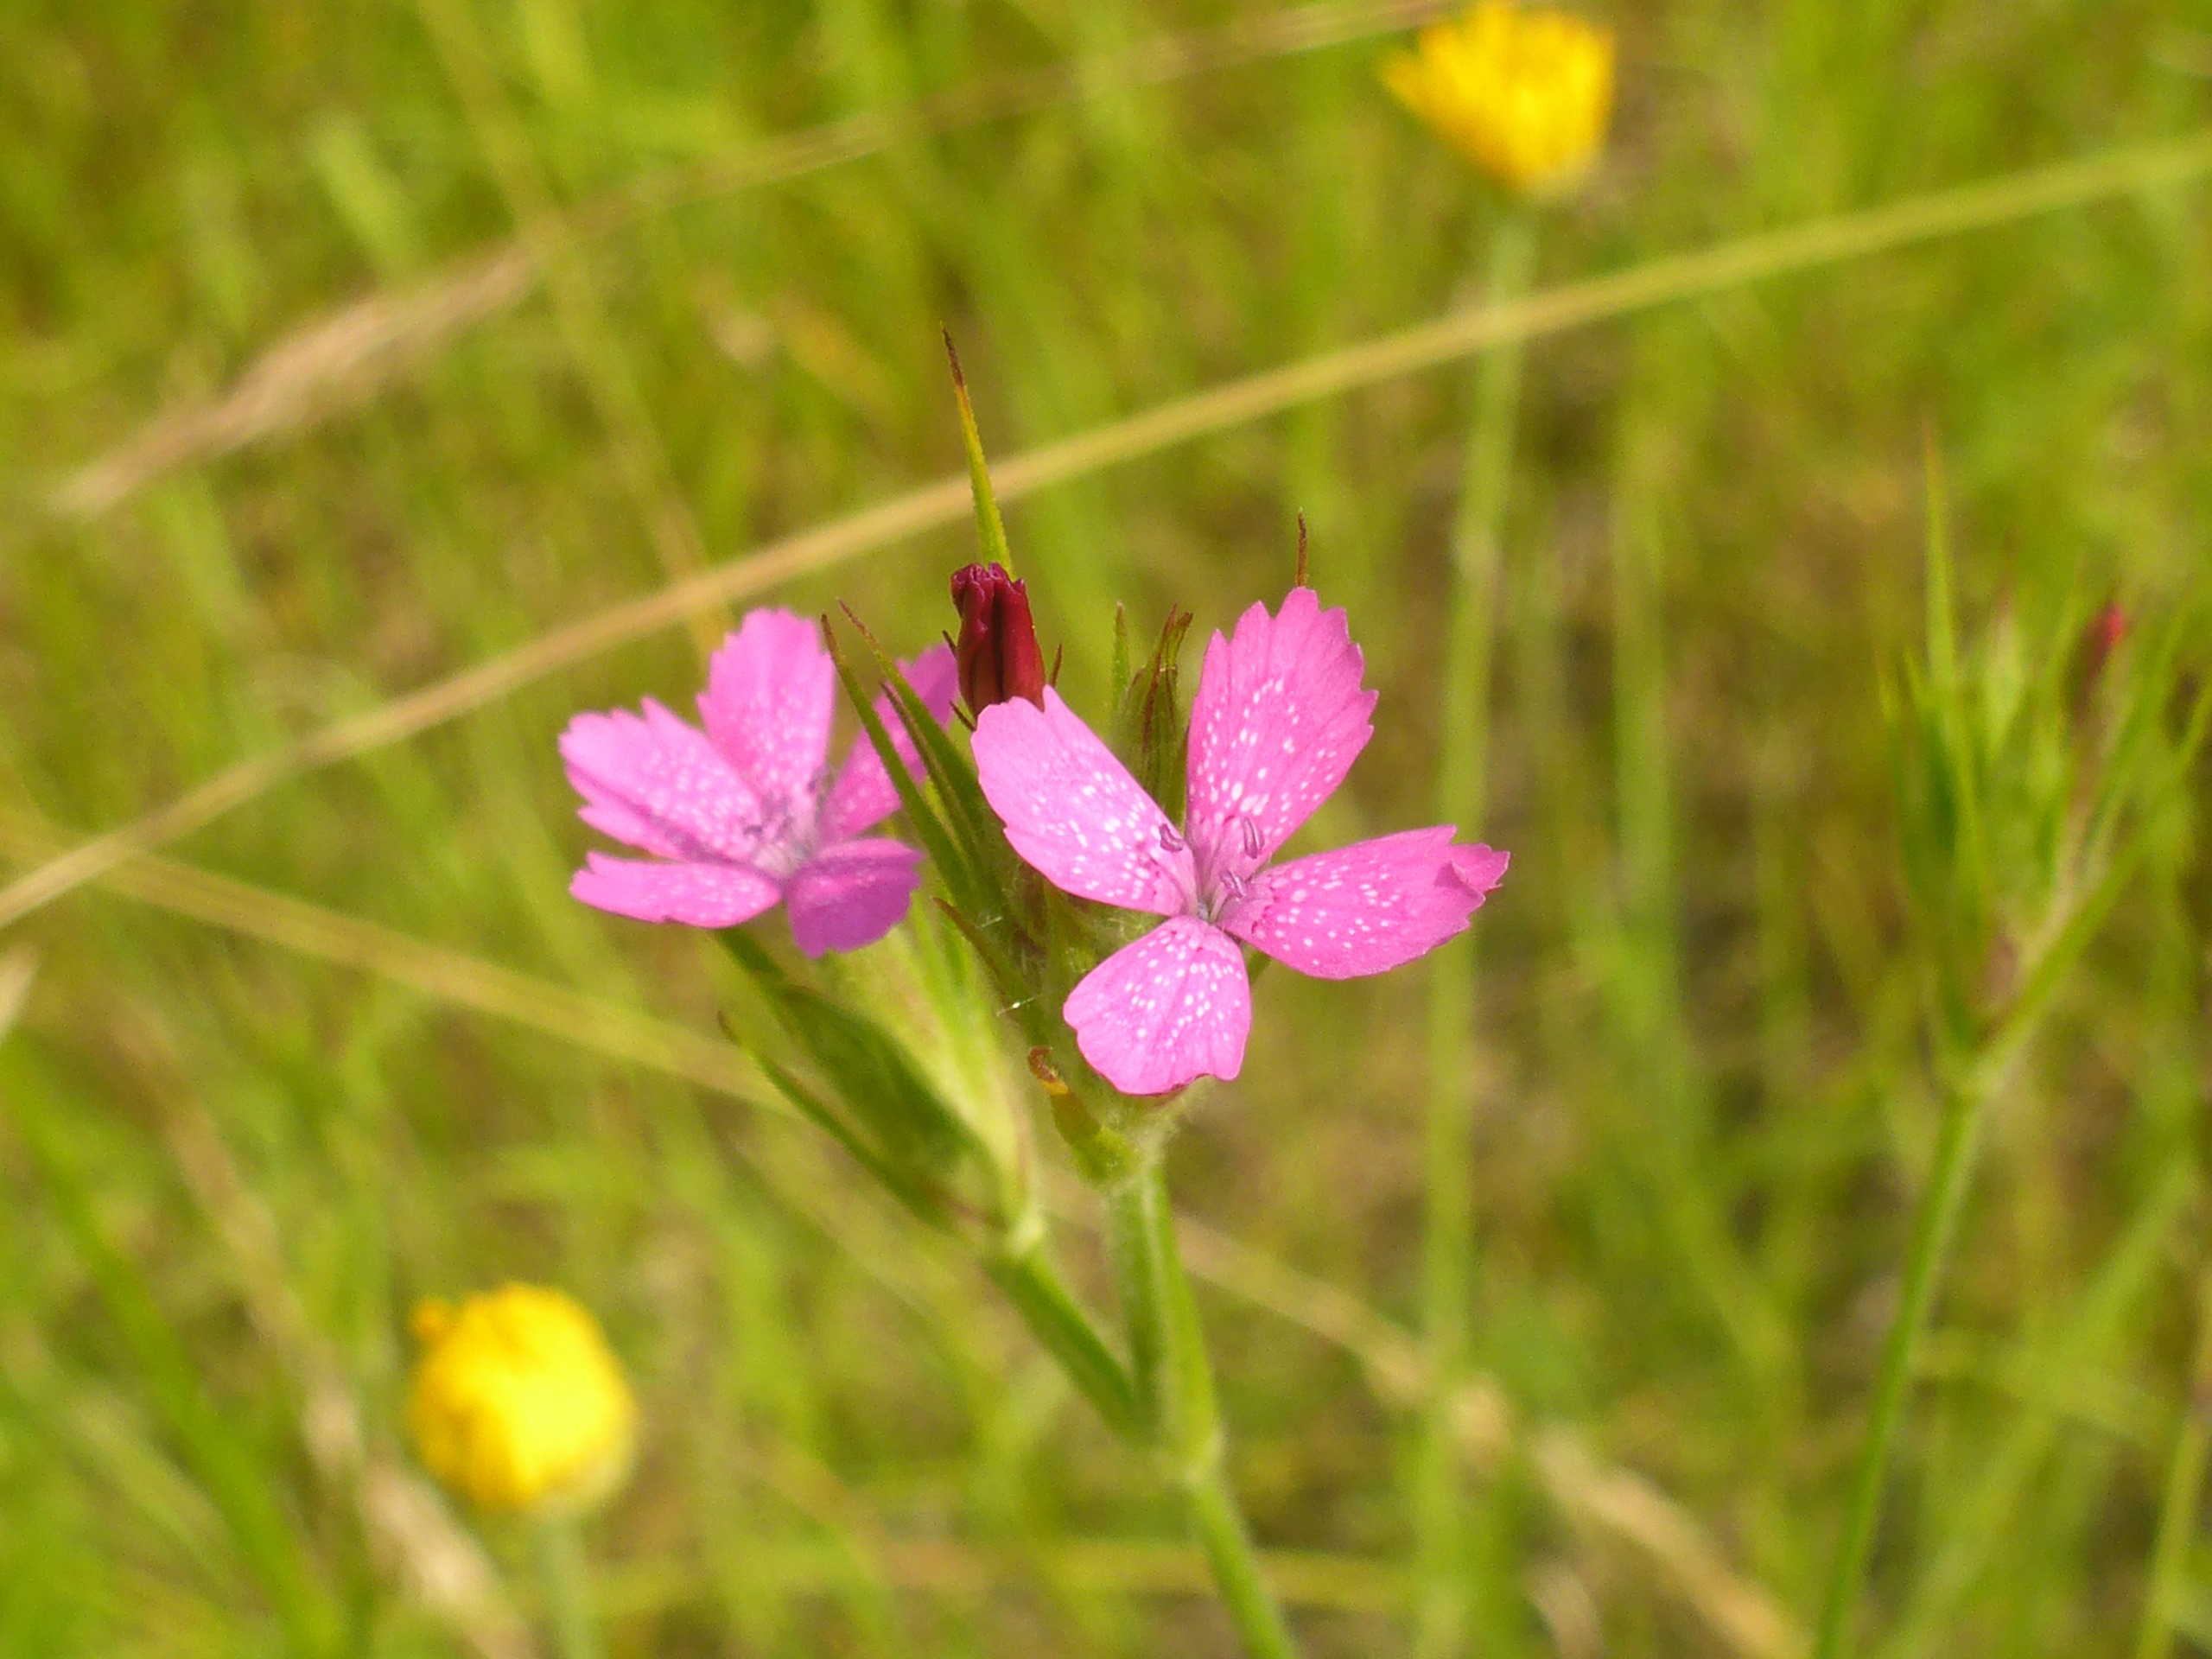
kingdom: Plantae
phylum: Tracheophyta
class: Magnoliopsida
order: Caryophyllales
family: Caryophyllaceae
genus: Dianthus
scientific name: Dianthus armeria
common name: Kost-nellike
